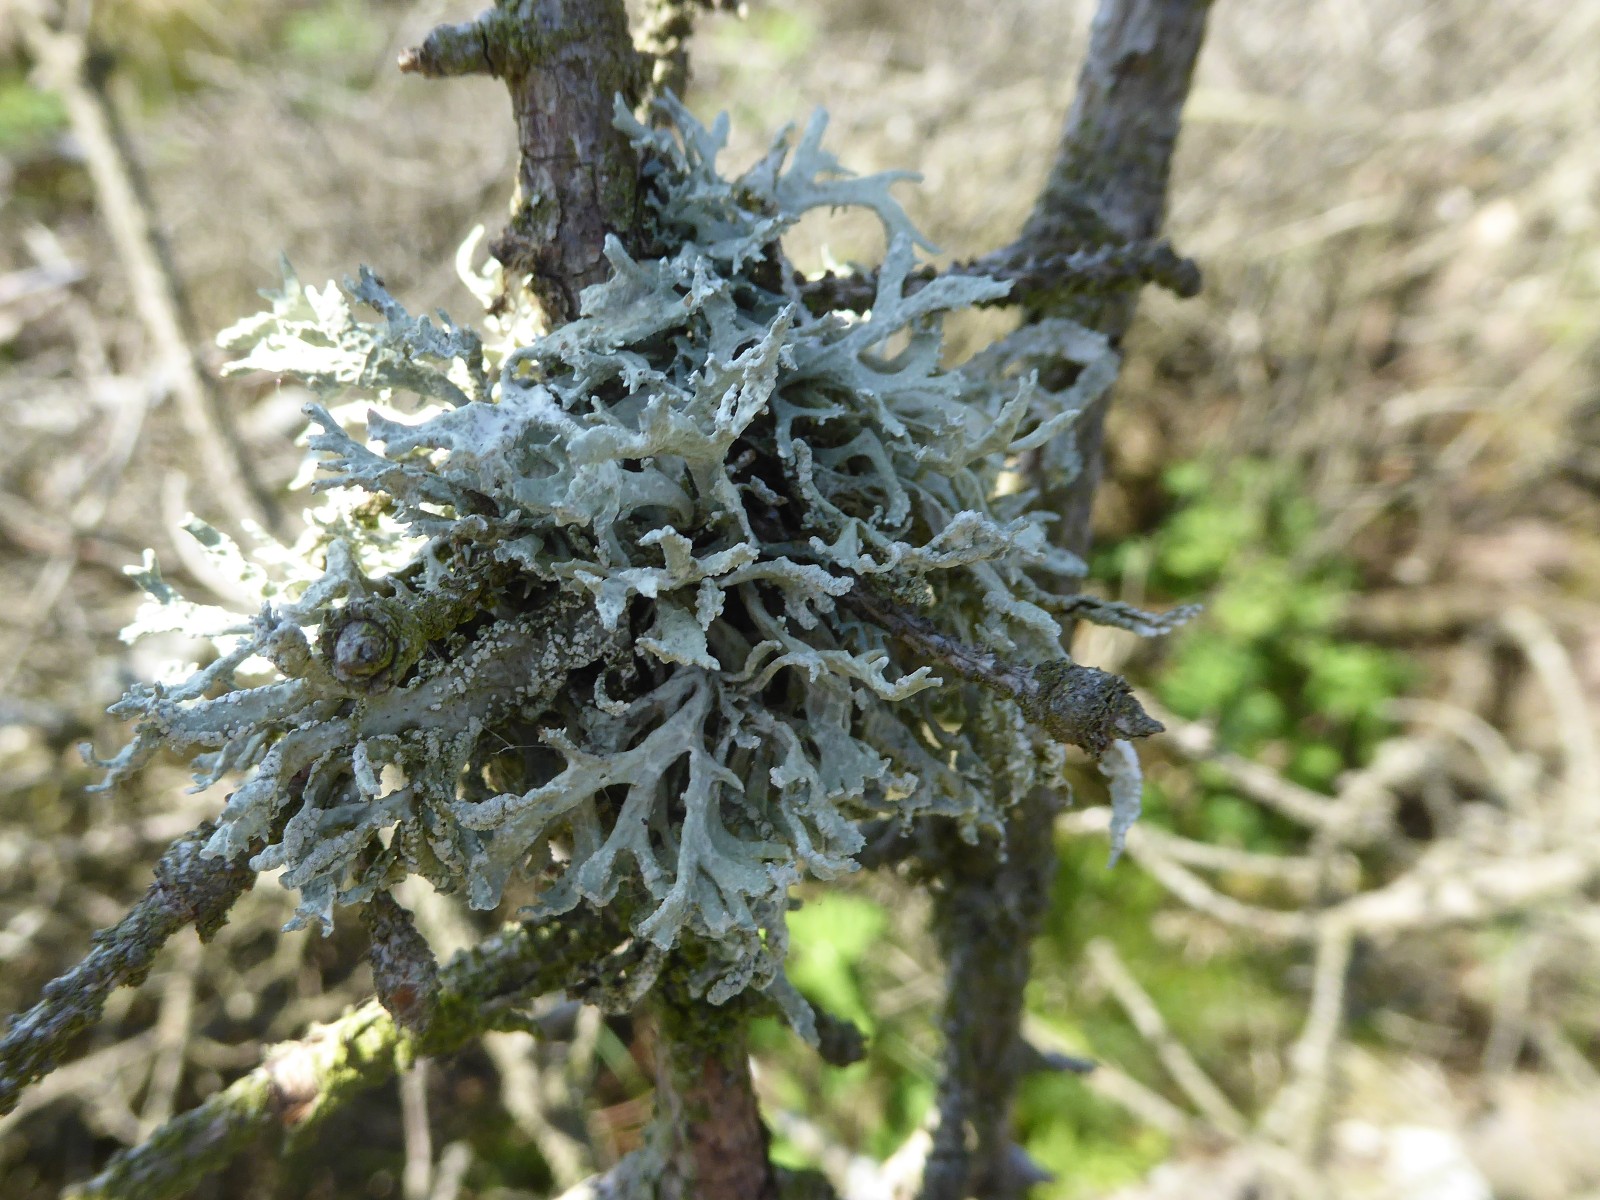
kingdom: Fungi
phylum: Ascomycota
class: Lecanoromycetes
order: Lecanorales
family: Parmeliaceae
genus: Evernia
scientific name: Evernia prunastri
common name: almindelig slåenlav
